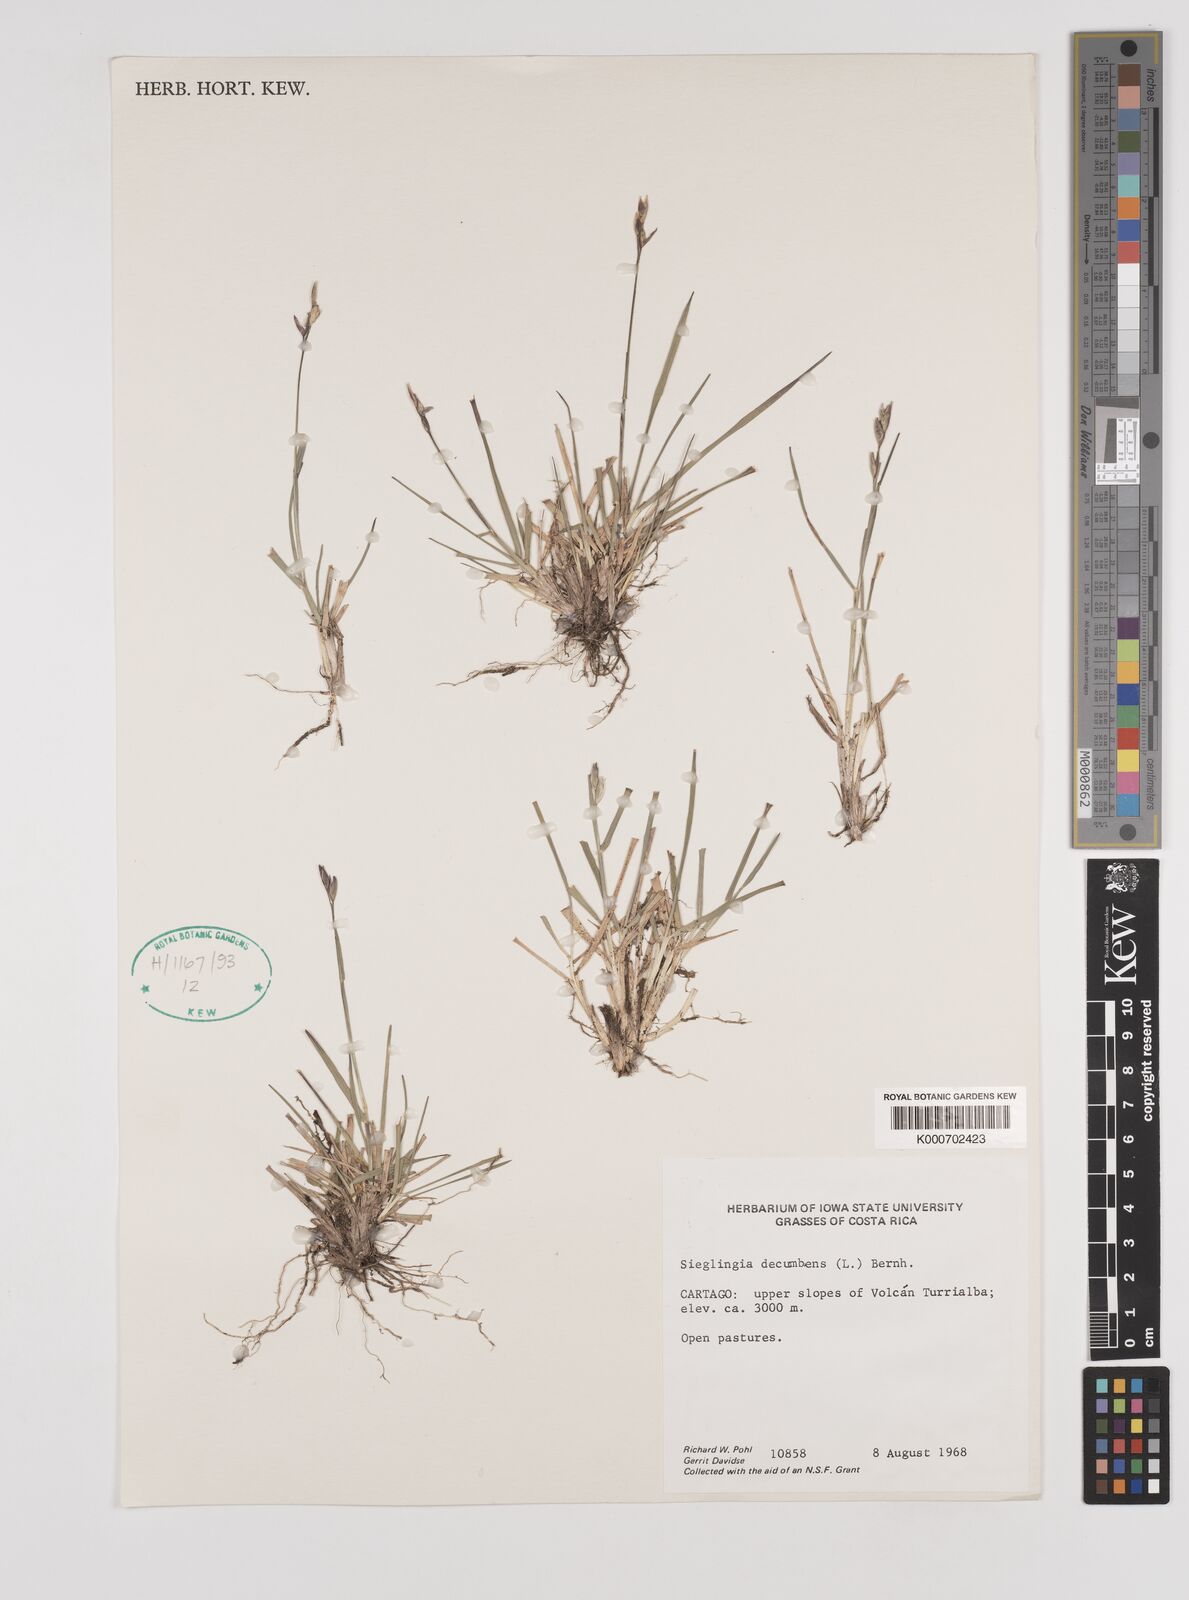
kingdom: Plantae
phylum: Tracheophyta
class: Liliopsida
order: Poales
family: Poaceae
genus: Danthonia
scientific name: Danthonia decumbens
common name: Common heathgrass
